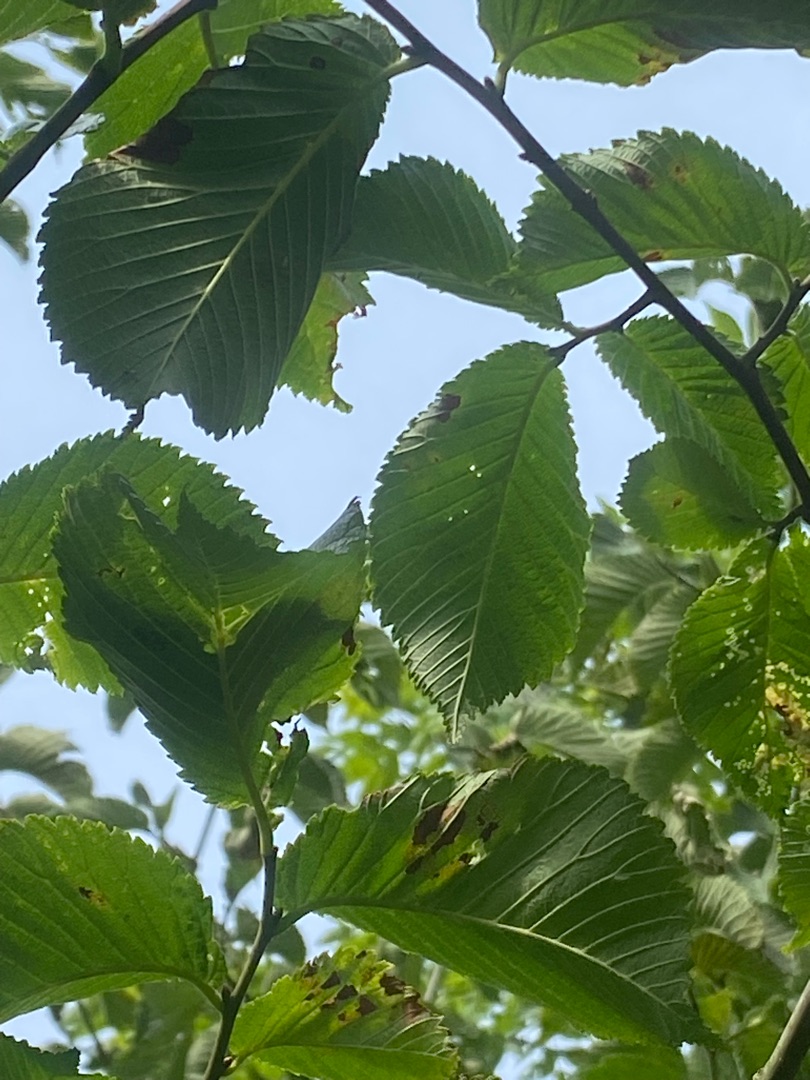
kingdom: Plantae
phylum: Tracheophyta
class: Magnoliopsida
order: Rosales
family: Ulmaceae
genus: Ulmus
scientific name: Ulmus glabra
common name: Skov-elm/storbladet elm
